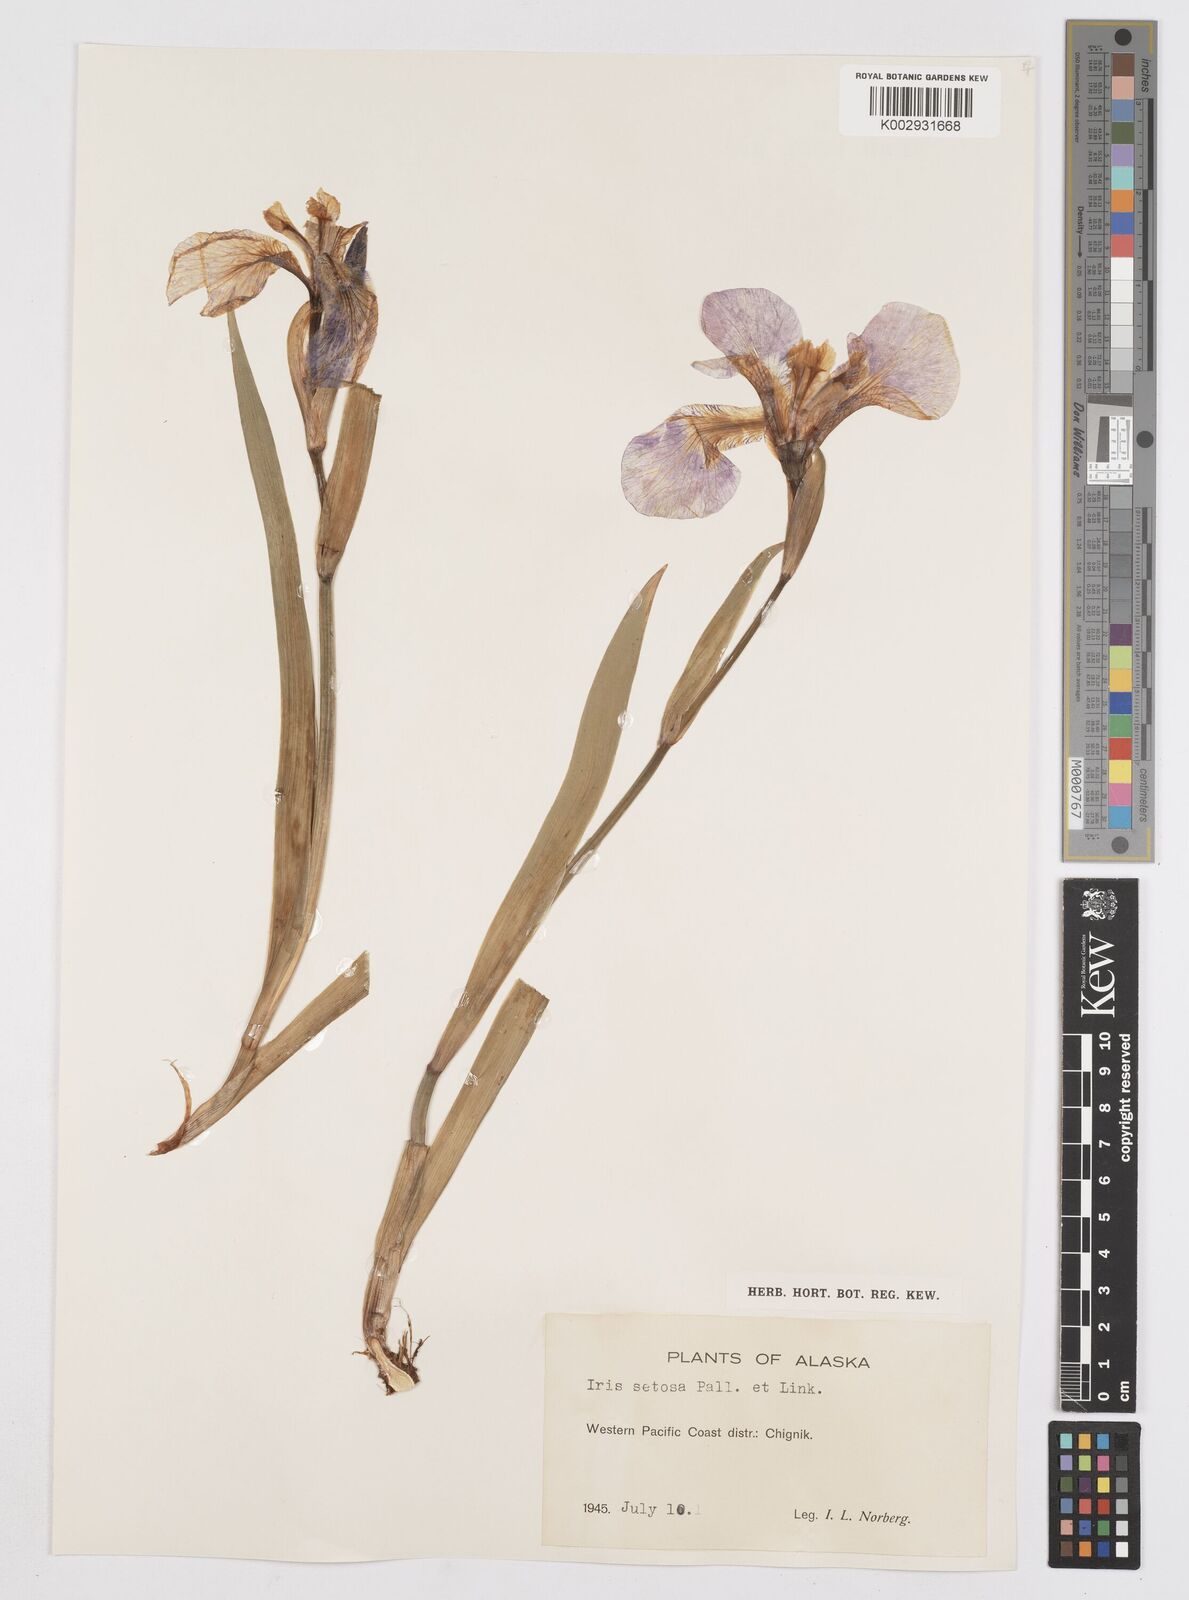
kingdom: Plantae
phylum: Tracheophyta
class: Liliopsida
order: Asparagales
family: Iridaceae
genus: Iris
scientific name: Iris setosa
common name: Arctic blue flag
